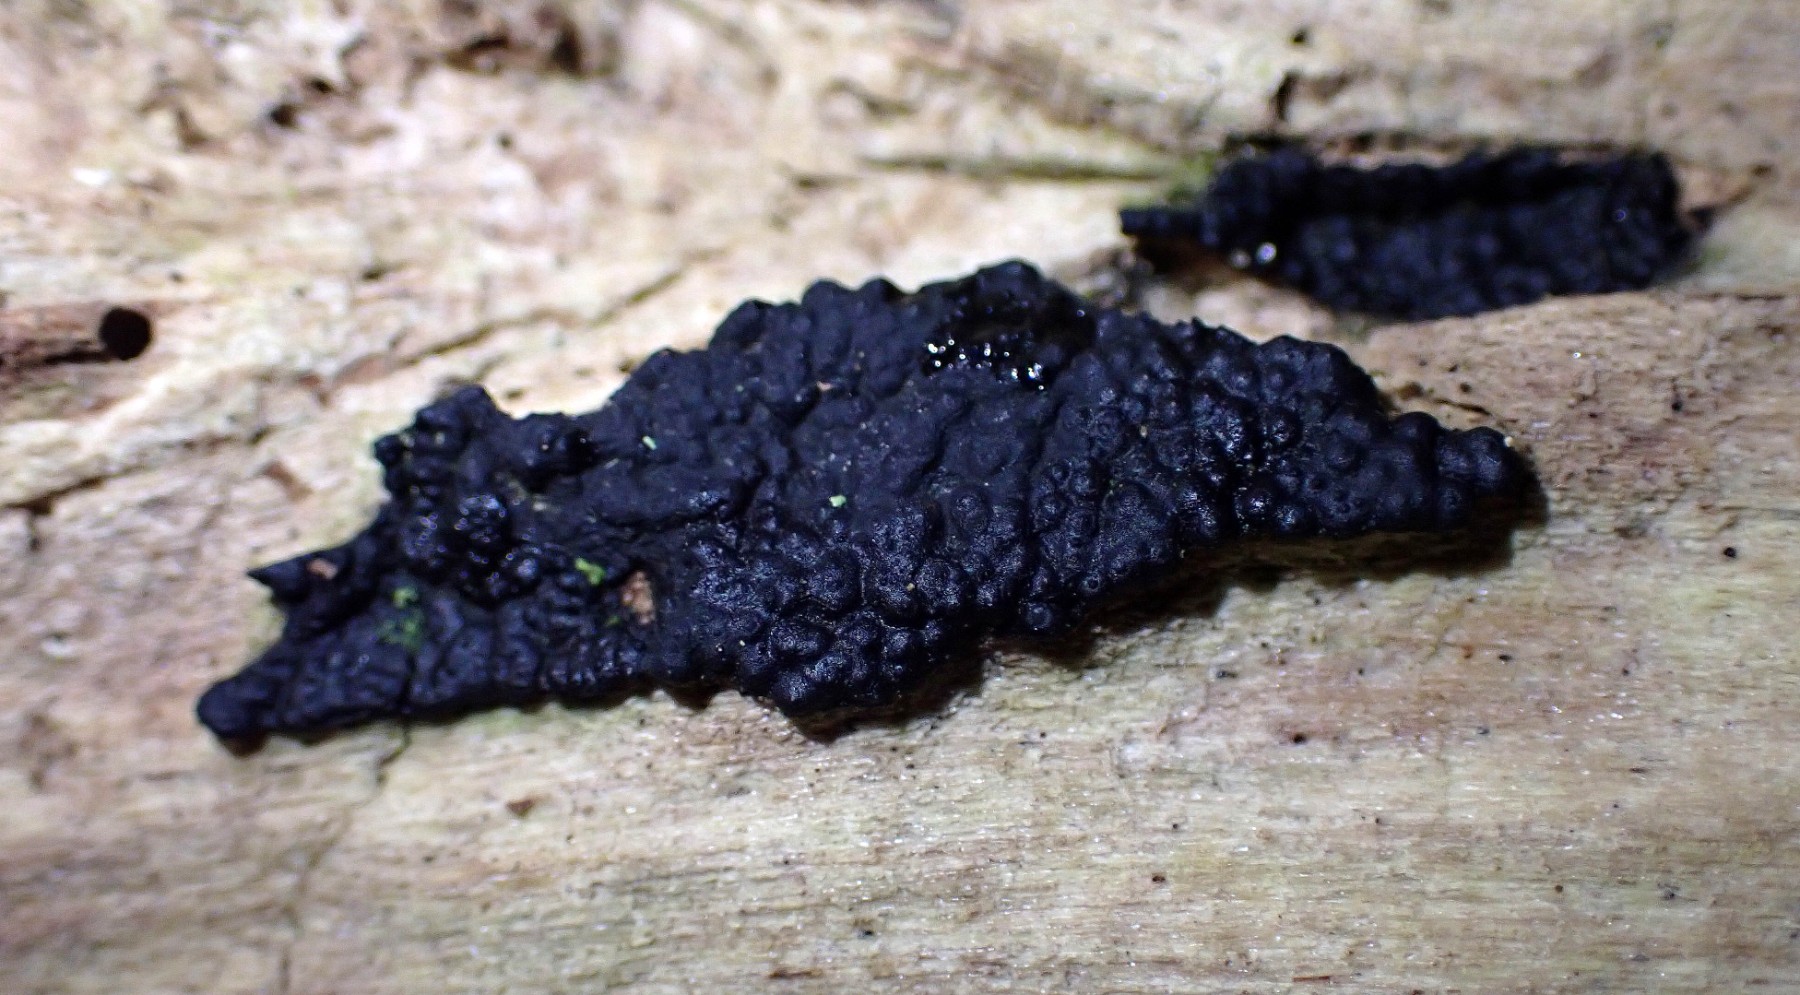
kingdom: Fungi
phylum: Ascomycota
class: Sordariomycetes
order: Xylariales
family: Xylariaceae
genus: Nemania
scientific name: Nemania
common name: kuldyne
